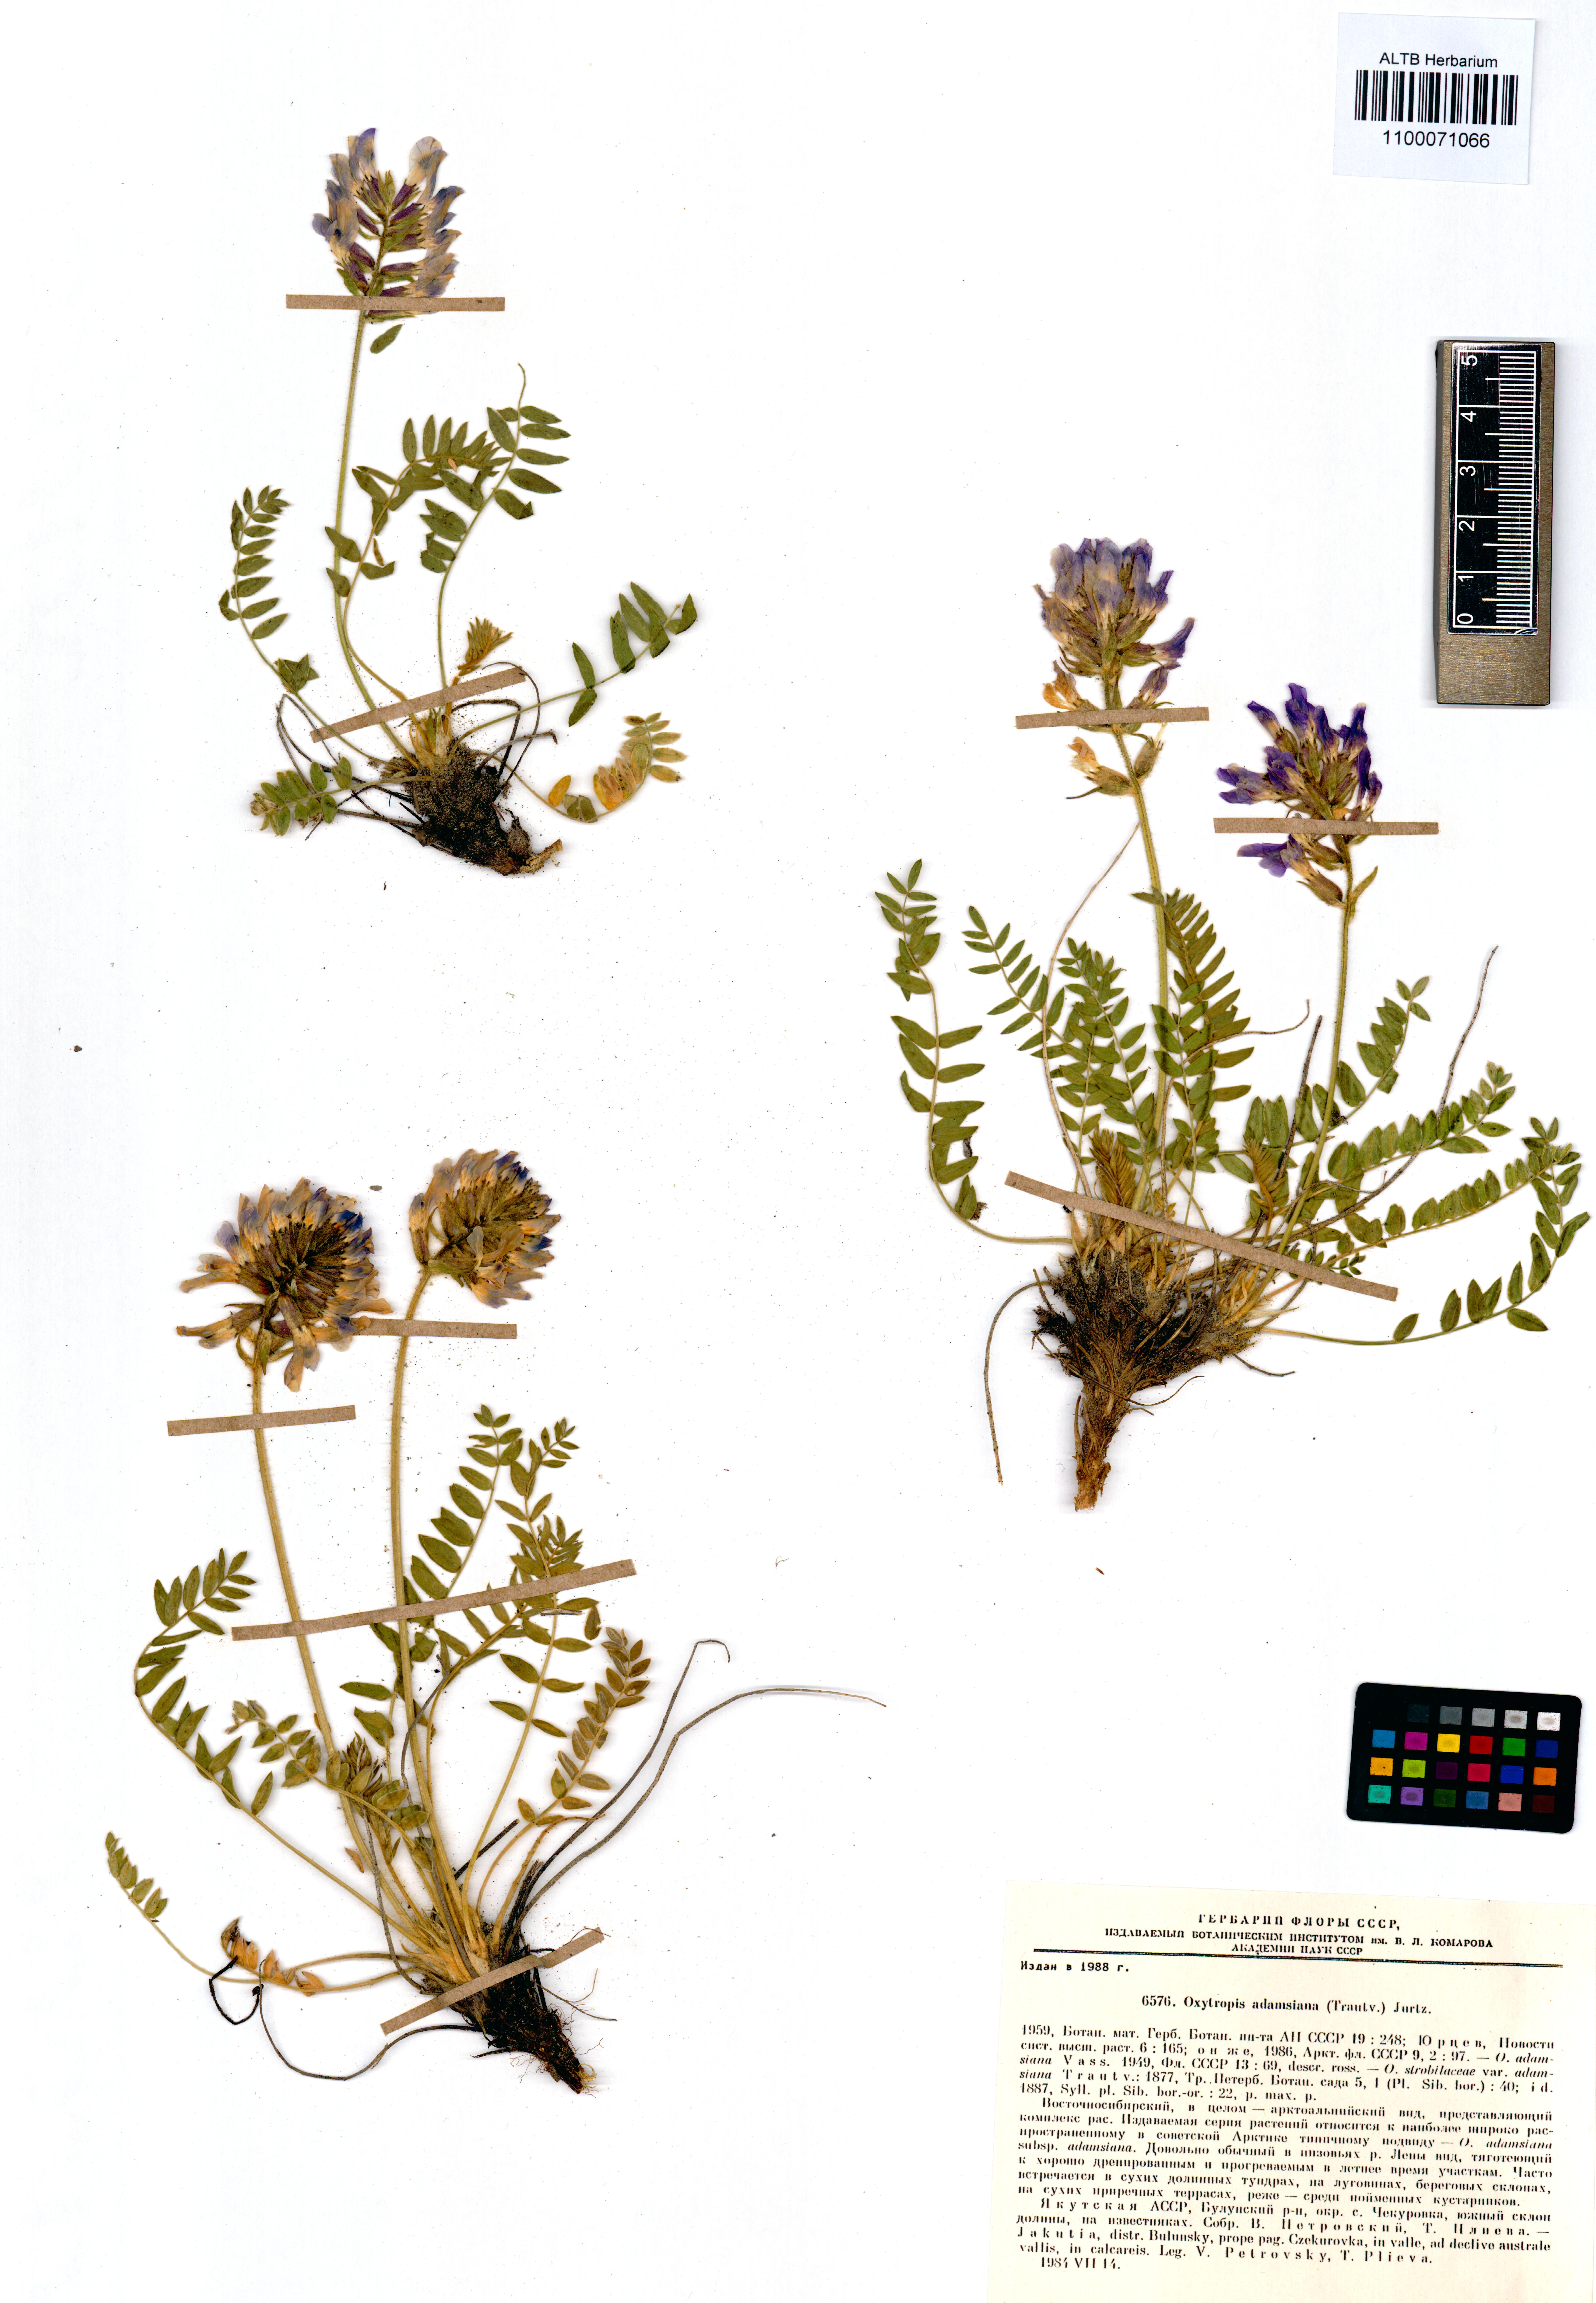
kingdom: Plantae
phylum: Tracheophyta
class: Magnoliopsida
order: Fabales
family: Fabaceae
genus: Oxytropis
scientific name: Oxytropis adamsiana
